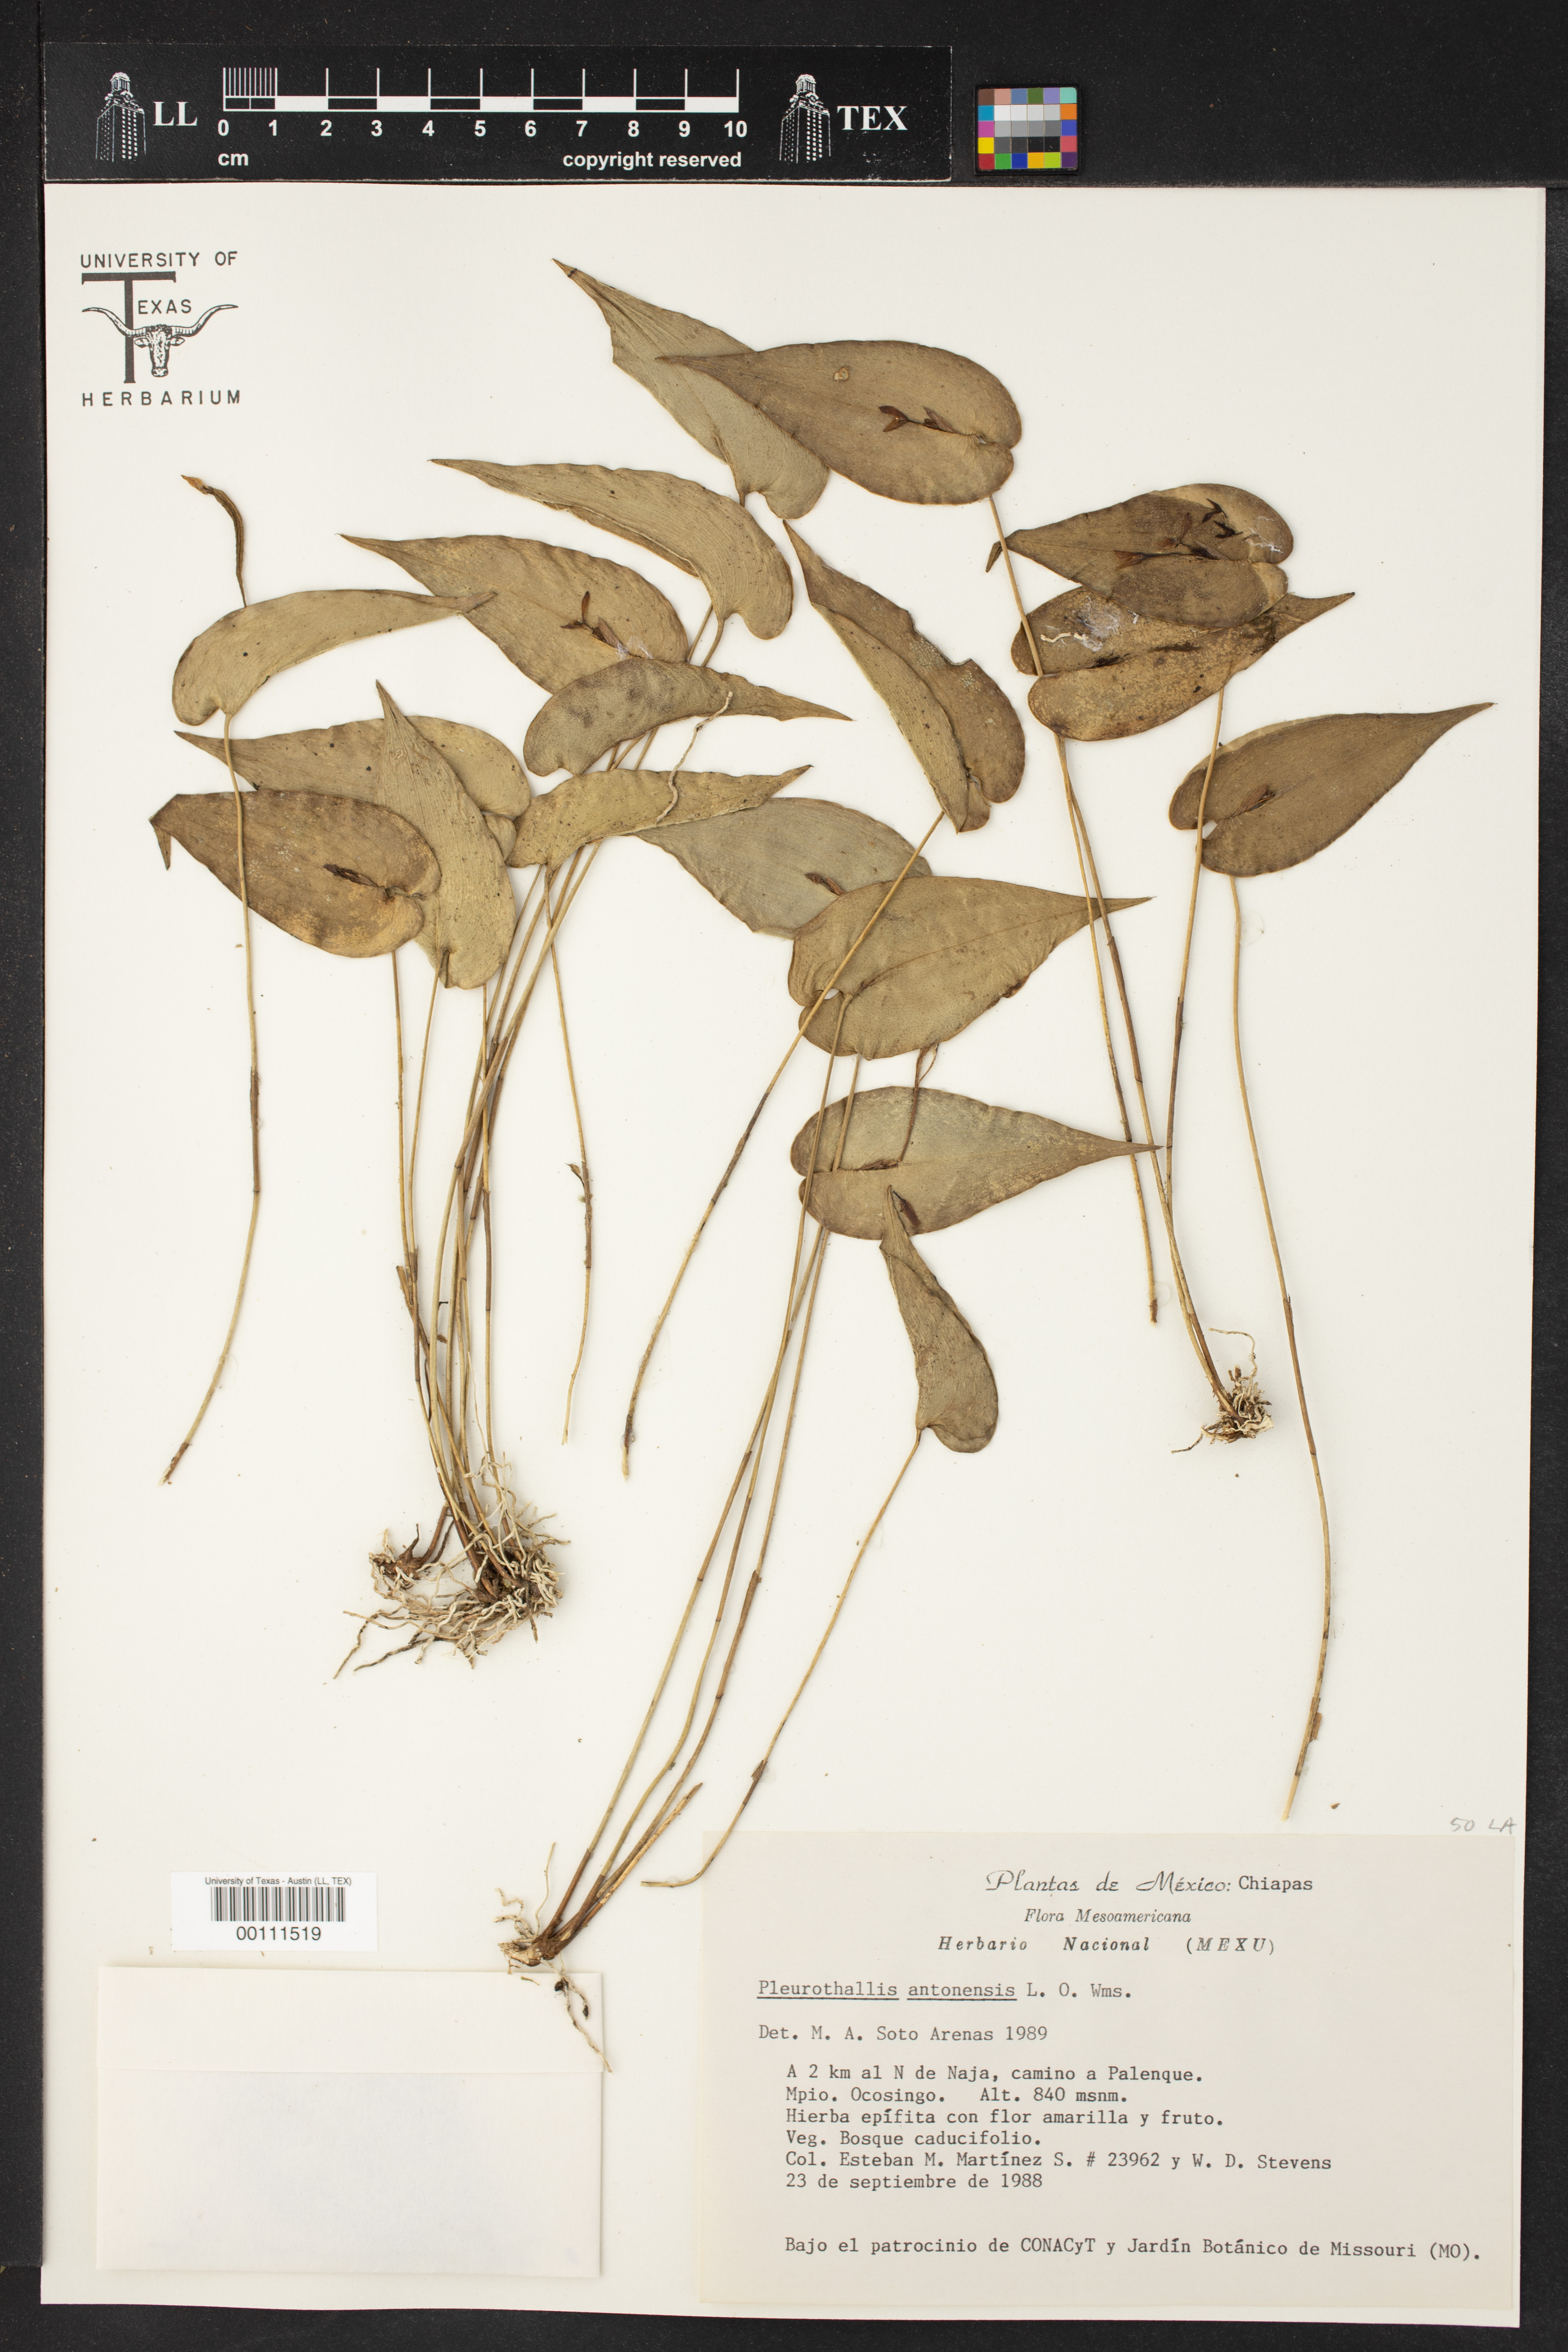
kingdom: Plantae
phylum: Tracheophyta
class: Liliopsida
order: Asparagales
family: Orchidaceae
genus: Pleurothallis
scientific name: Pleurothallis bivalvis
